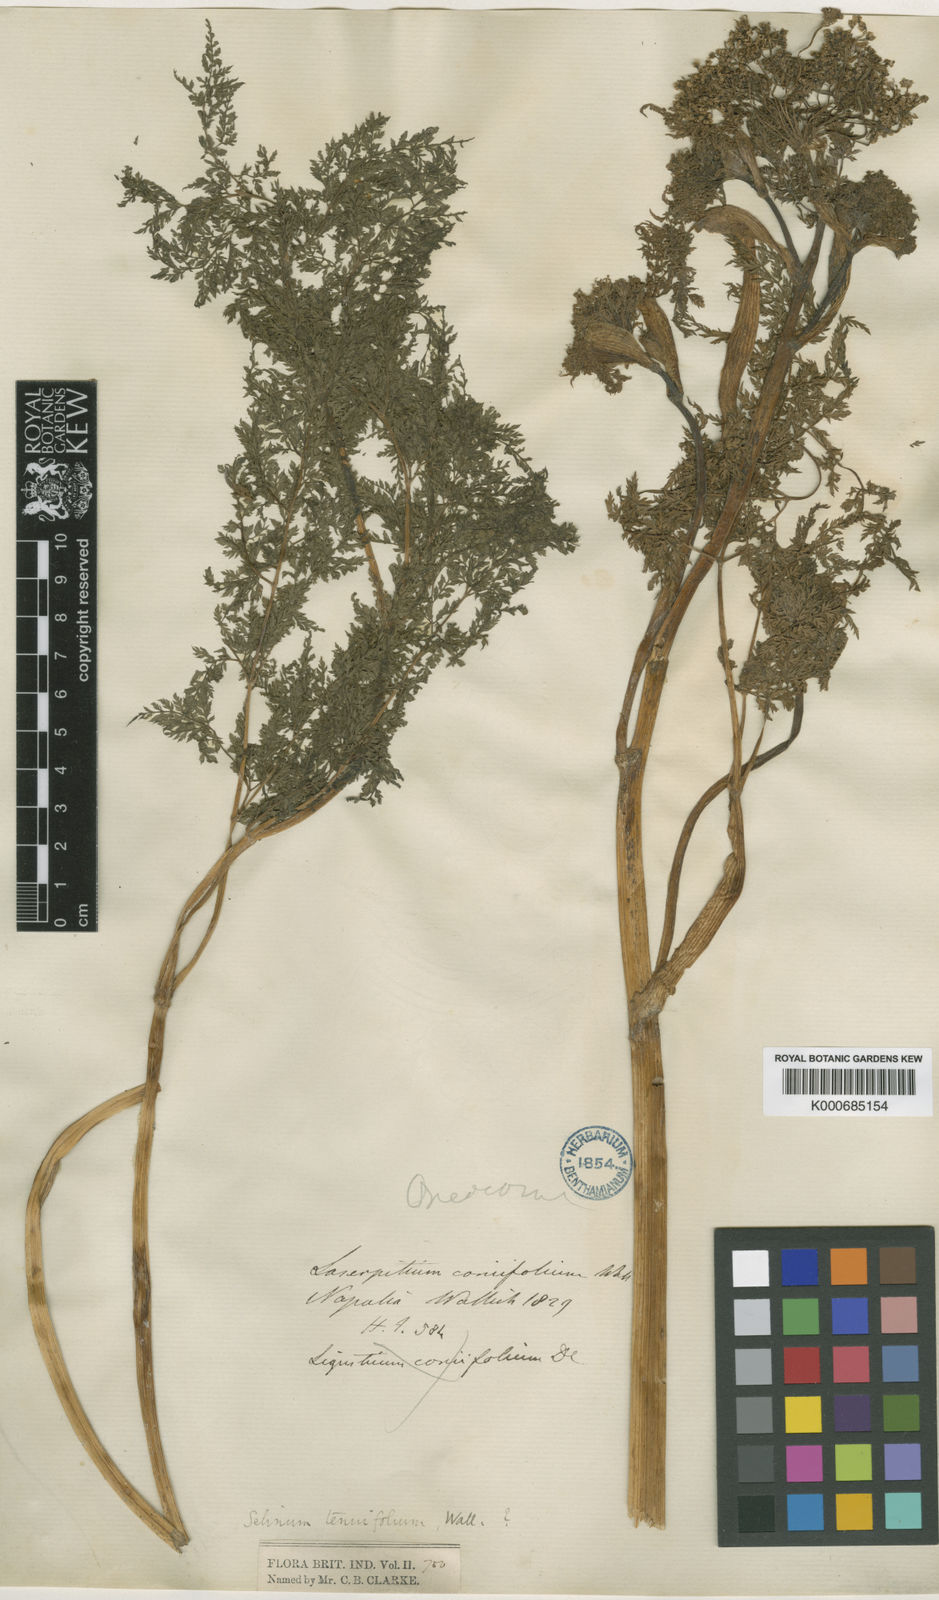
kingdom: Plantae
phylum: Tracheophyta
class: Magnoliopsida
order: Apiales
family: Apiaceae
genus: Selinum
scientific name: Selinum
